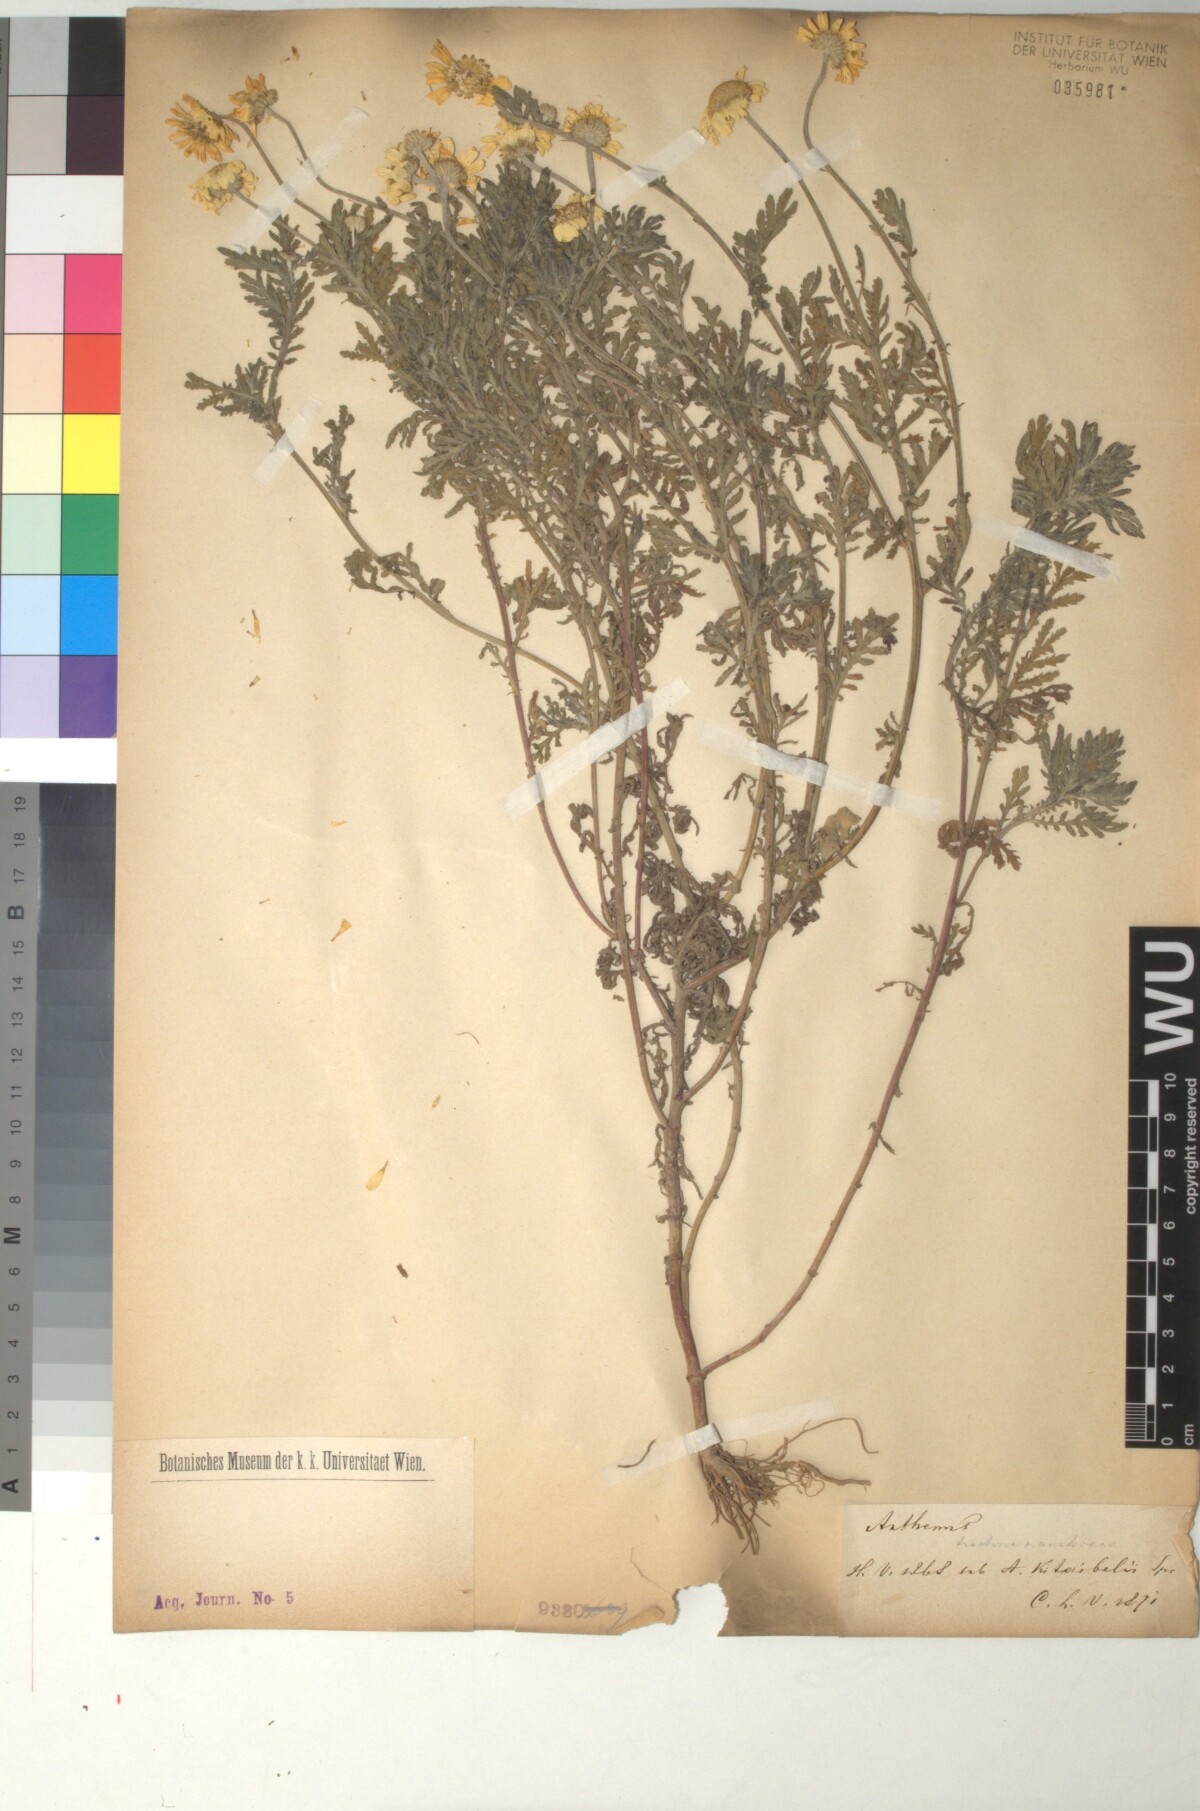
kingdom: Plantae
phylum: Tracheophyta
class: Magnoliopsida
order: Asterales
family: Asteraceae
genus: Cota
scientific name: Cota austriaca
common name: Austrian chamomile
